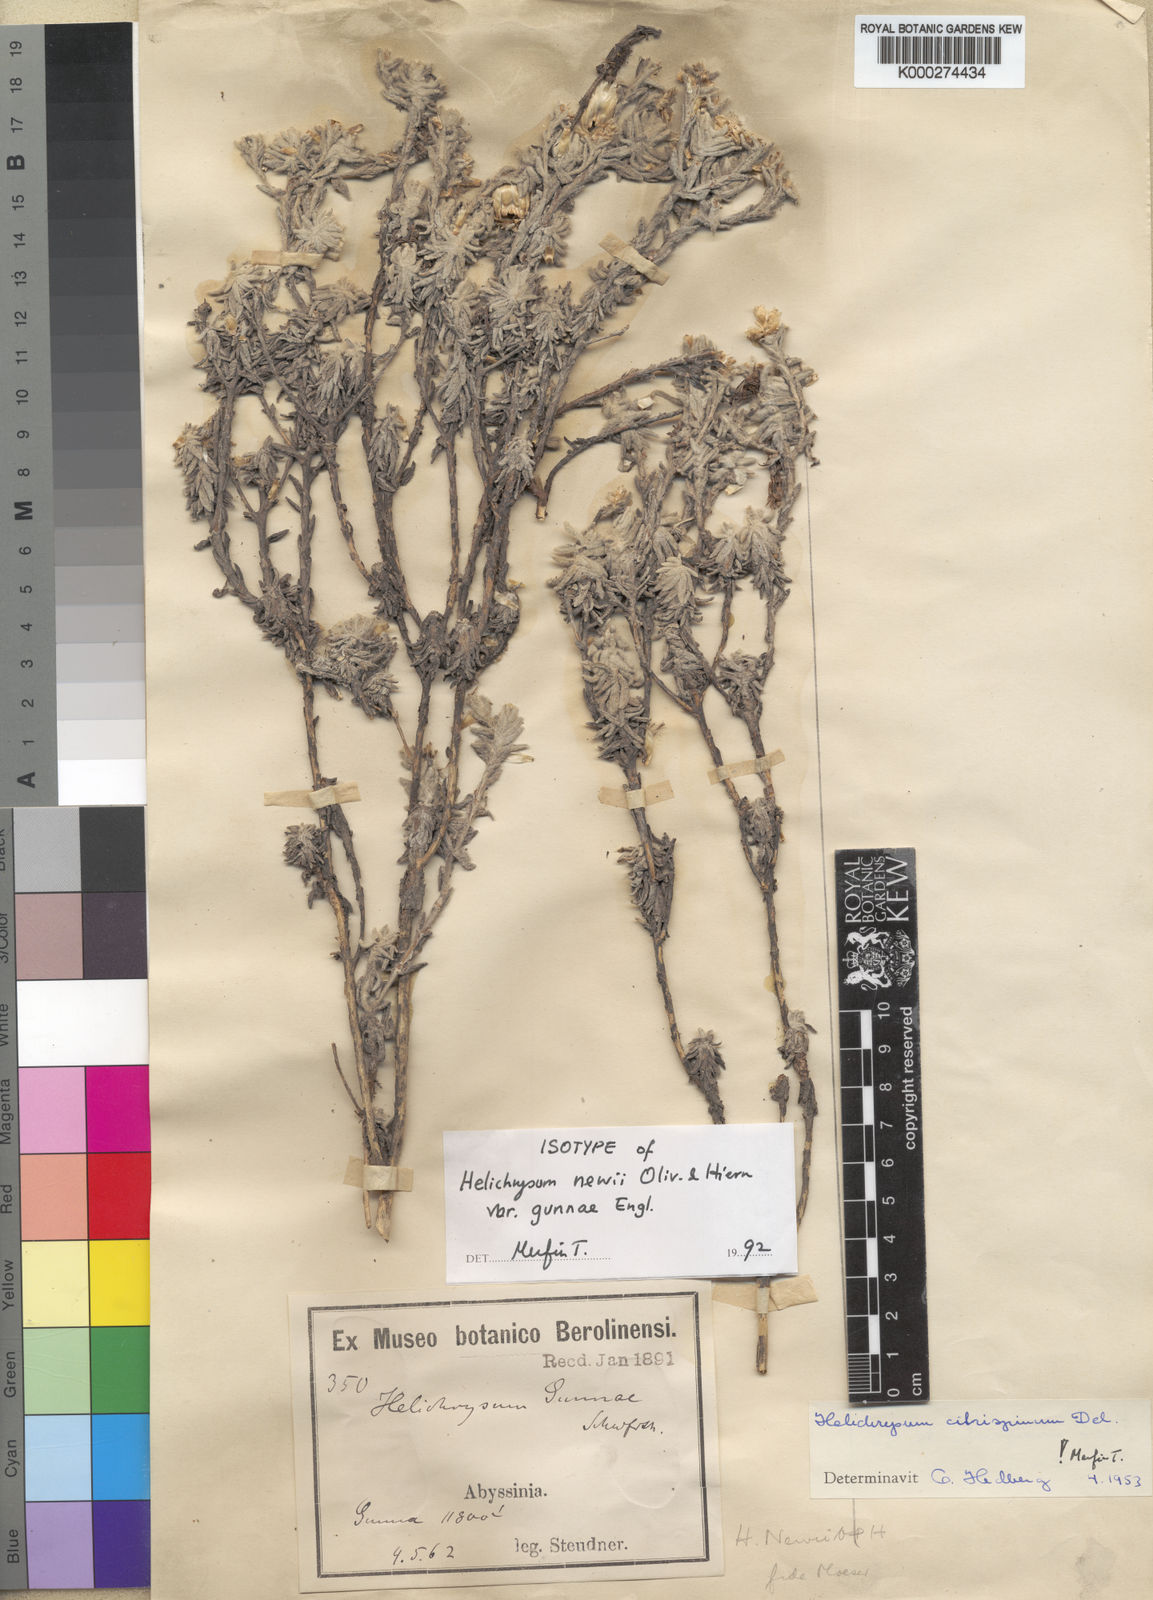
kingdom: Plantae
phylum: Tracheophyta
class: Magnoliopsida
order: Asterales
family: Asteraceae
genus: Helichrysum
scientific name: Helichrysum citrispinum
